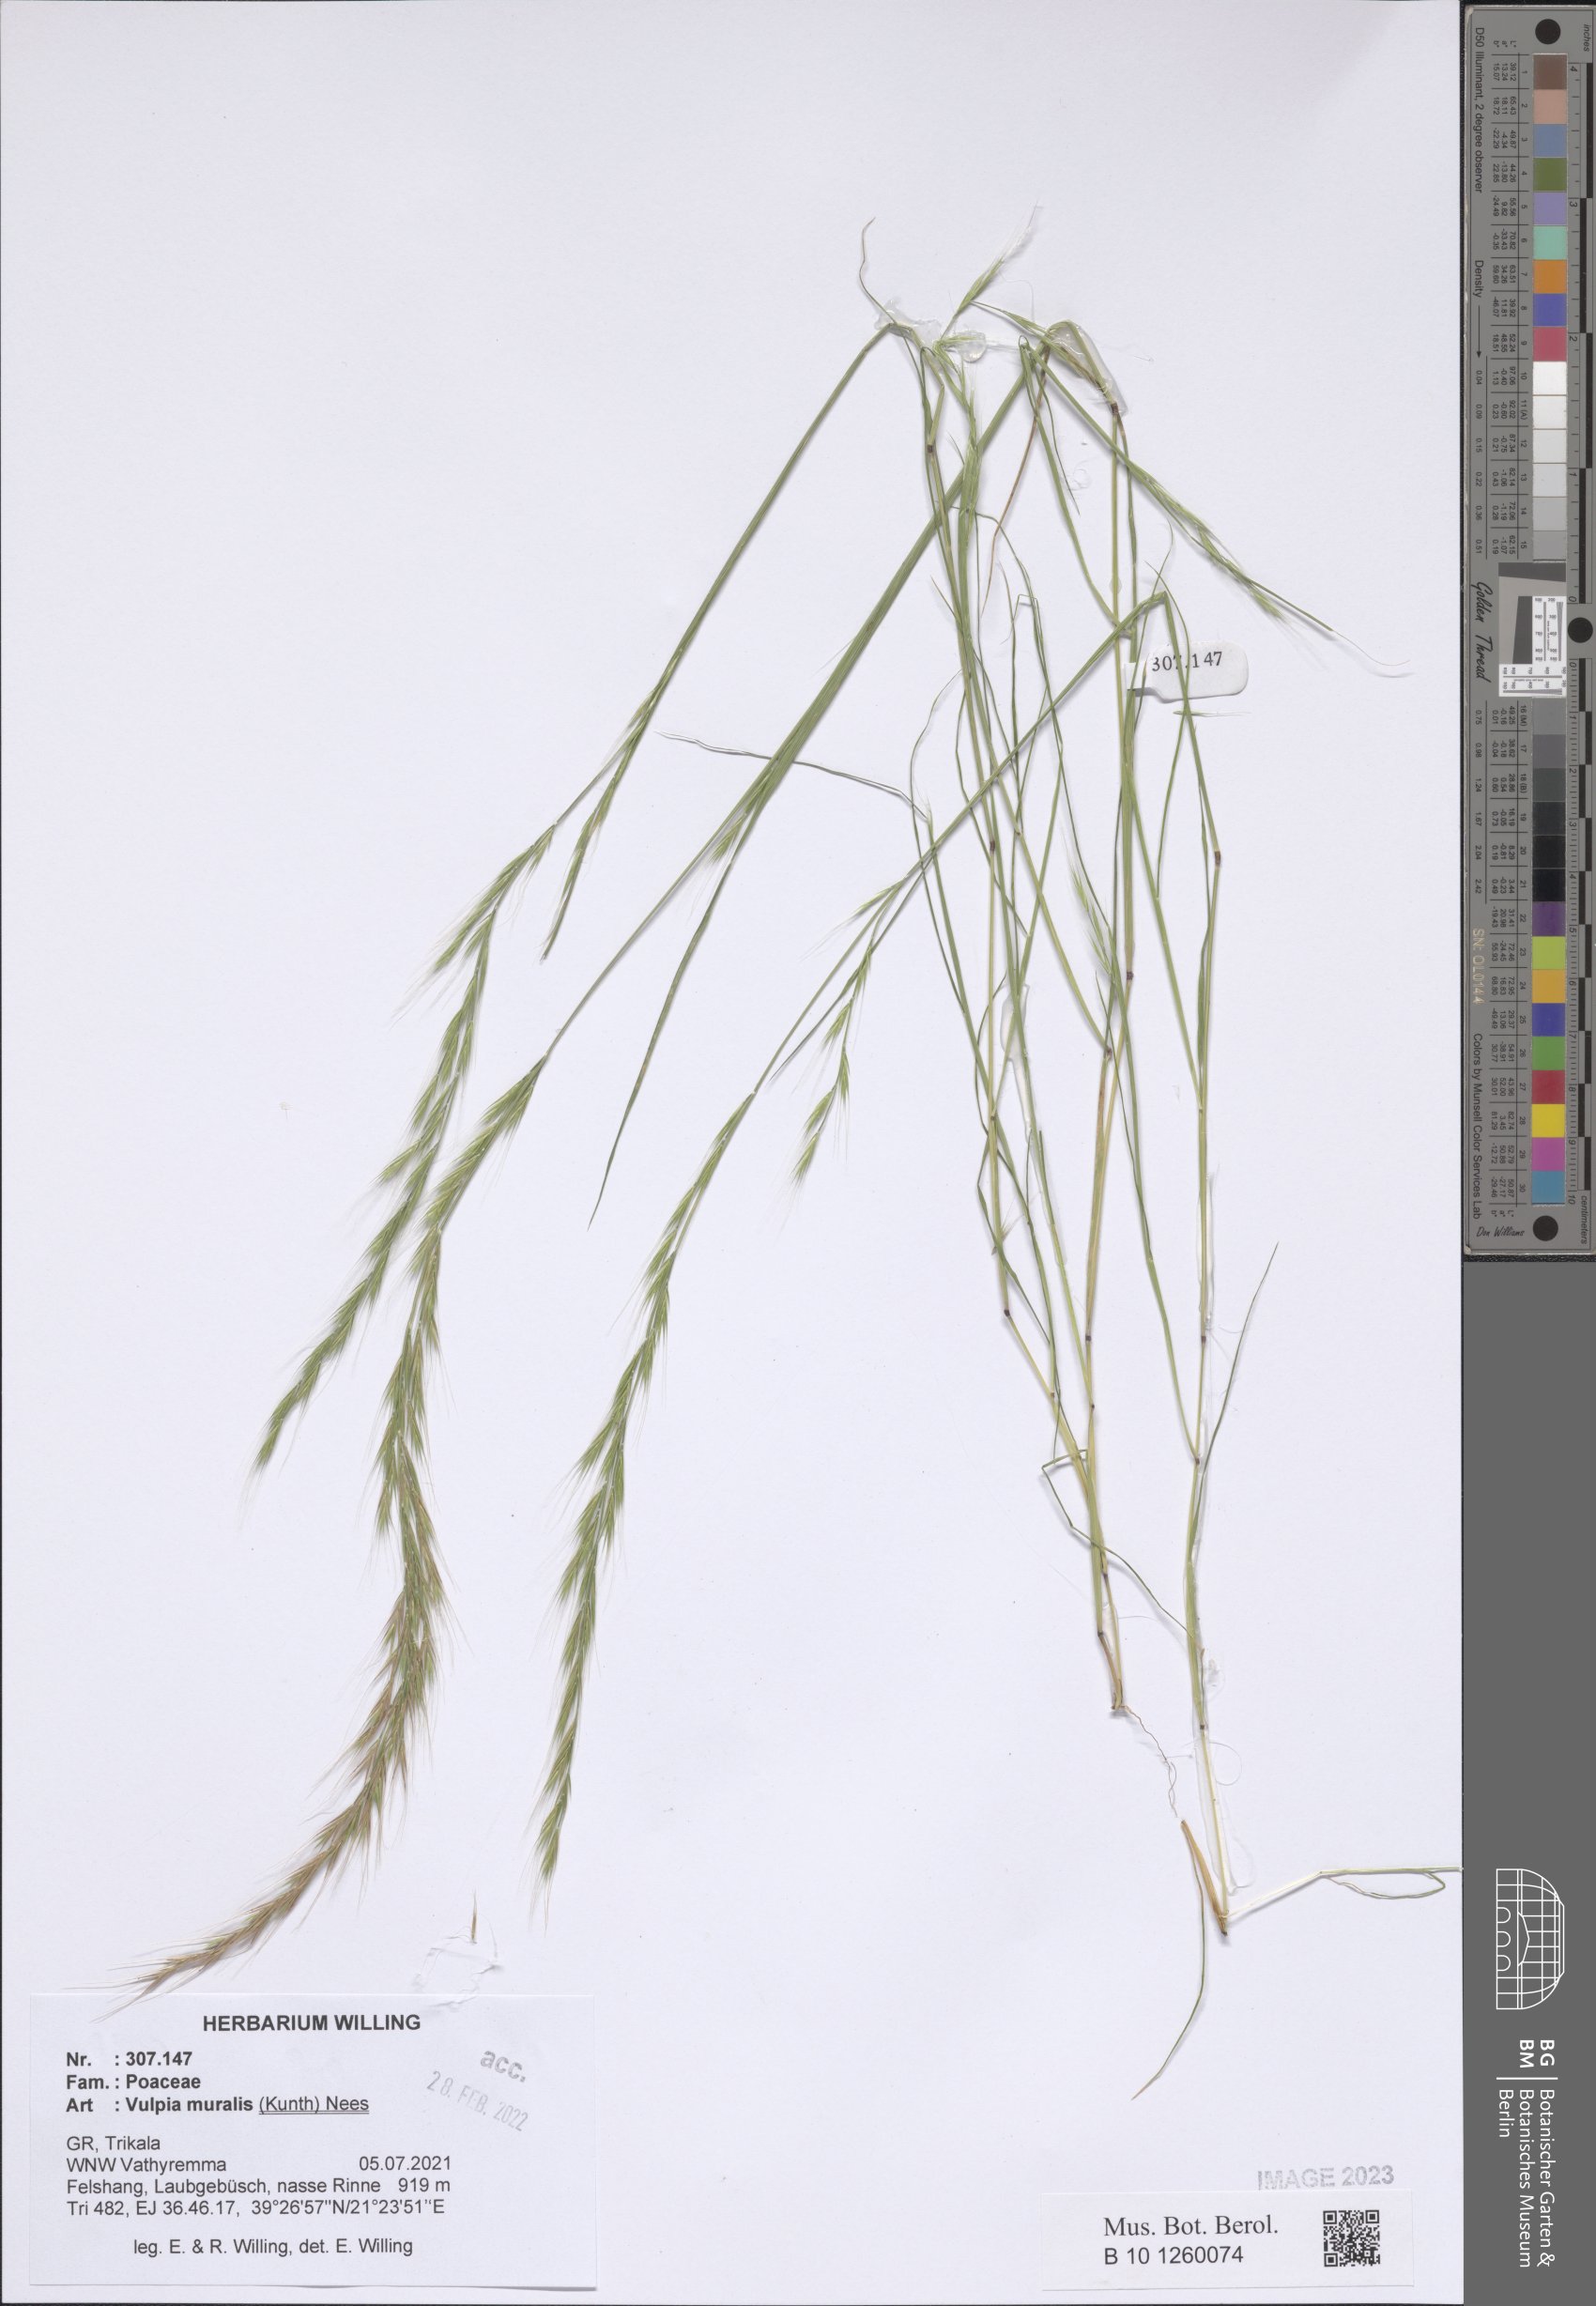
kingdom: Plantae
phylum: Tracheophyta
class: Liliopsida
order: Poales
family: Poaceae
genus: Festuca
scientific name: Festuca muralis
